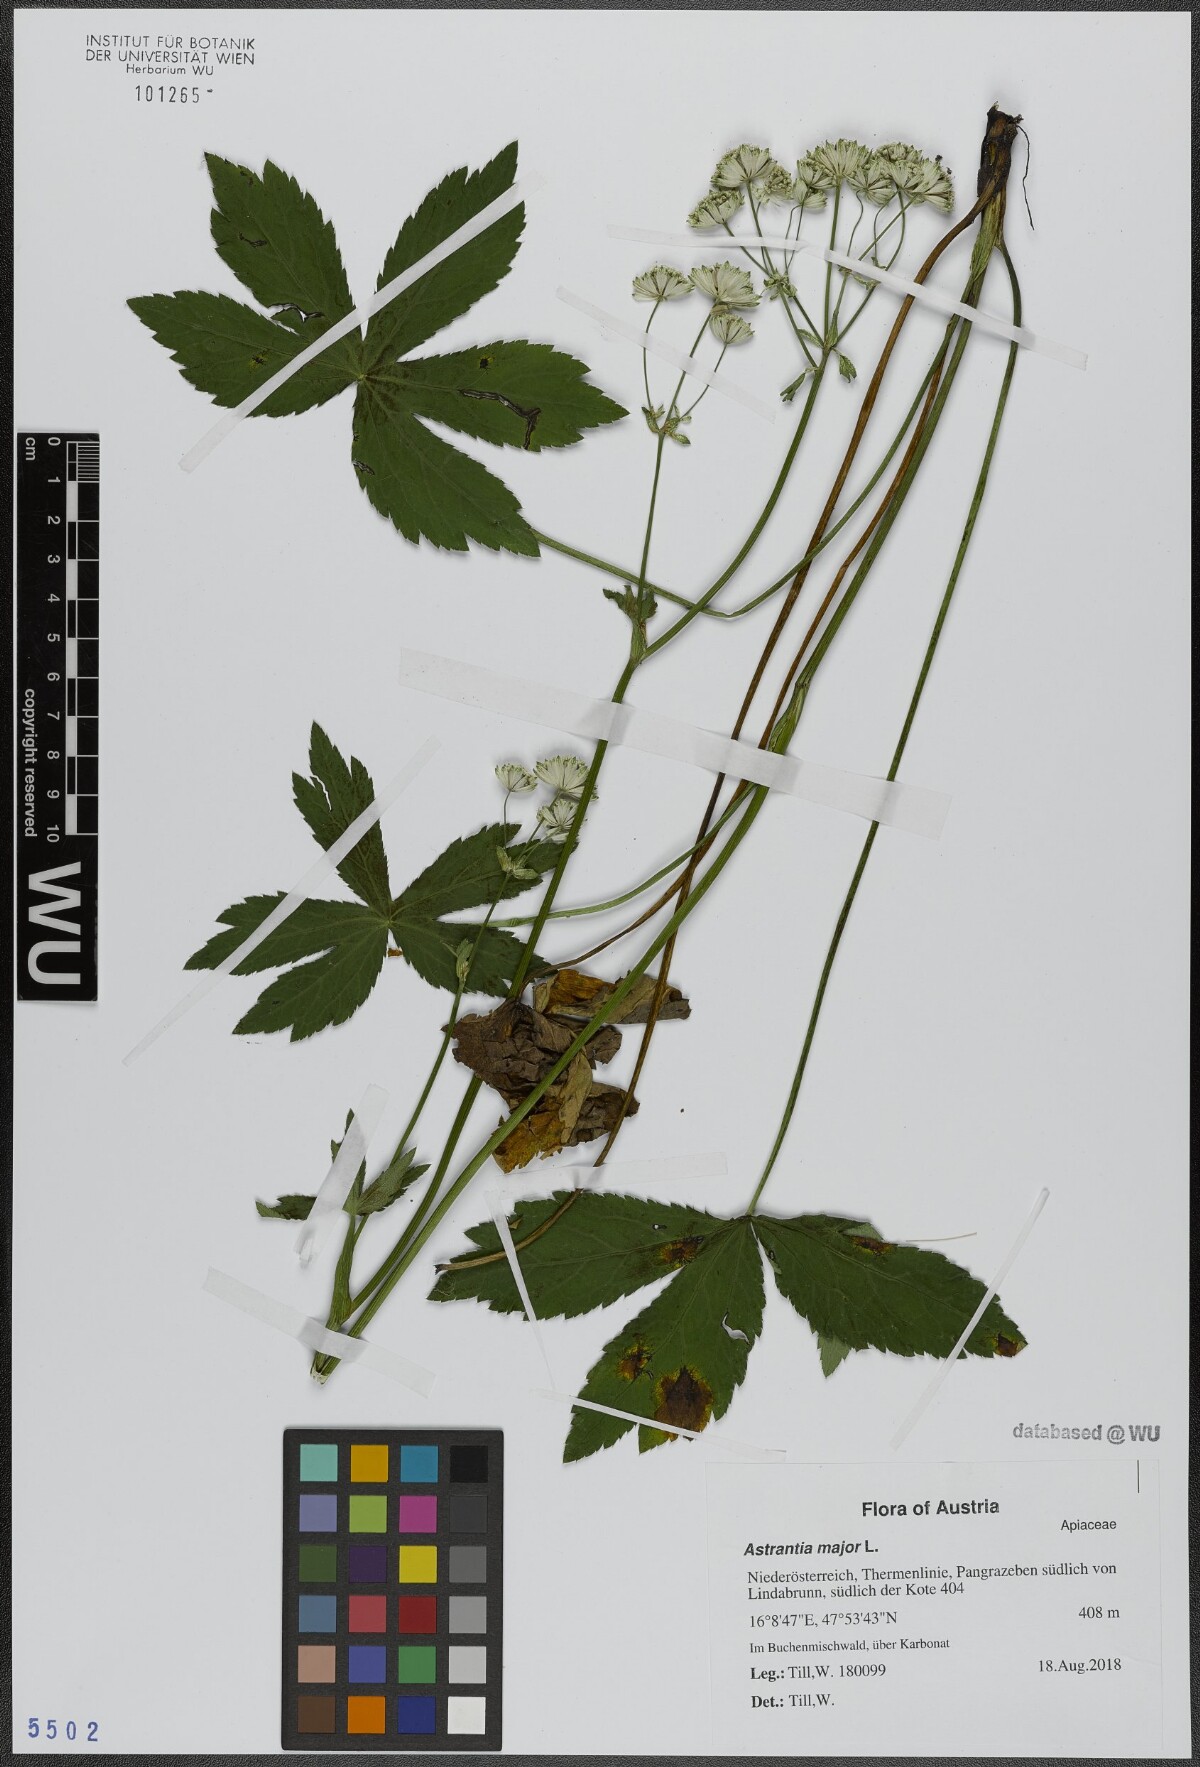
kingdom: Plantae
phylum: Tracheophyta
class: Magnoliopsida
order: Apiales
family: Apiaceae
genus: Astrantia
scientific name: Astrantia major
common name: Greater masterwort
